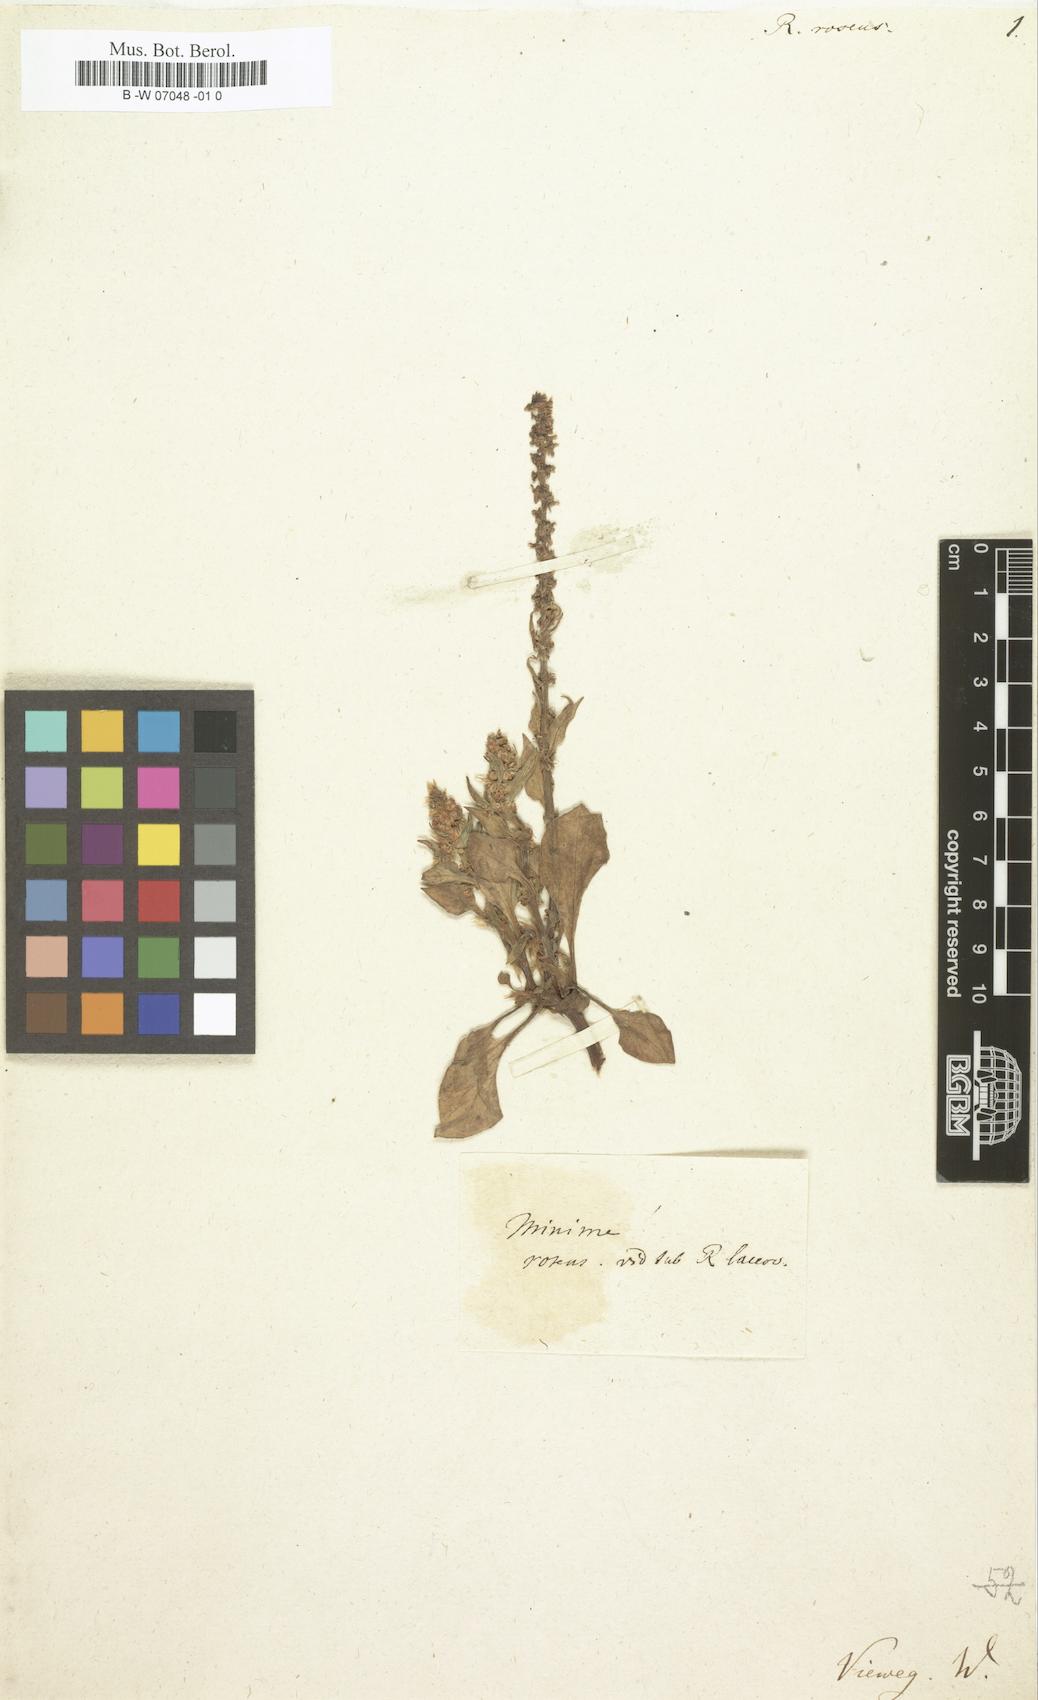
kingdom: Plantae
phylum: Tracheophyta
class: Magnoliopsida
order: Caryophyllales
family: Polygonaceae
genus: Rumex
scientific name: Rumex roseus
